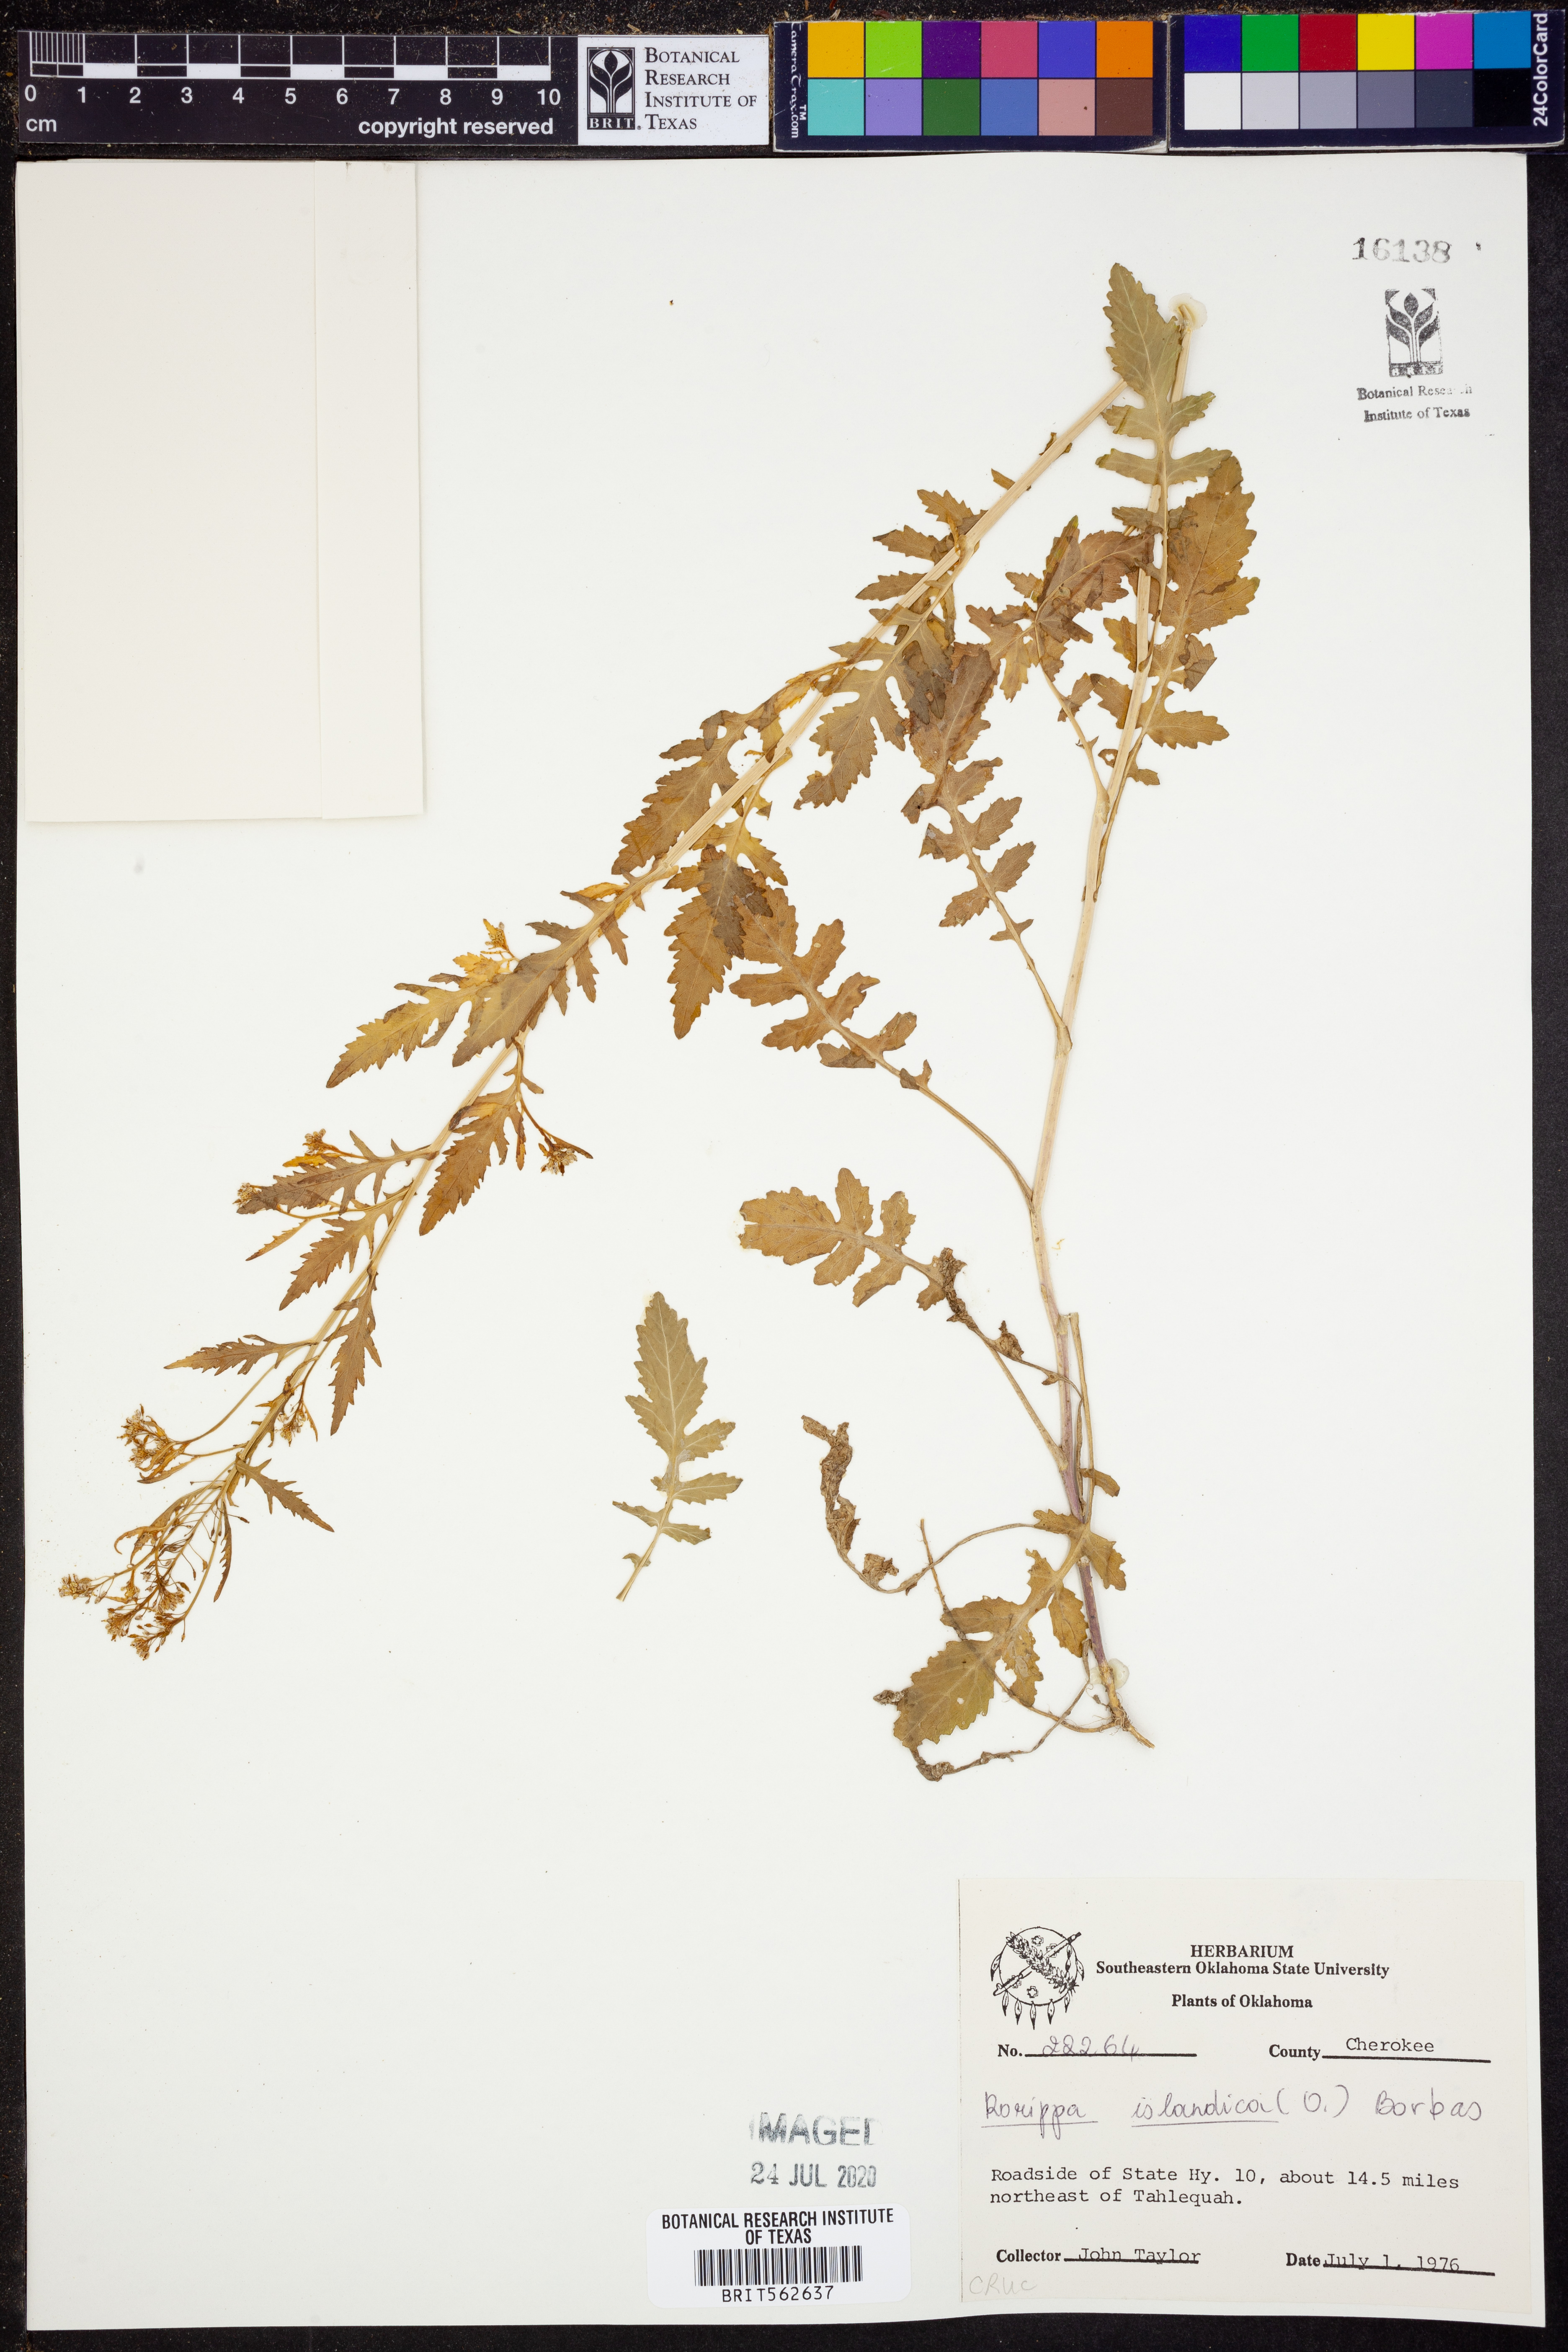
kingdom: Plantae
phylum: Tracheophyta
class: Magnoliopsida
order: Brassicales
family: Brassicaceae
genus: Rorippa
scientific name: Rorippa islandica
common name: Marsh cress
